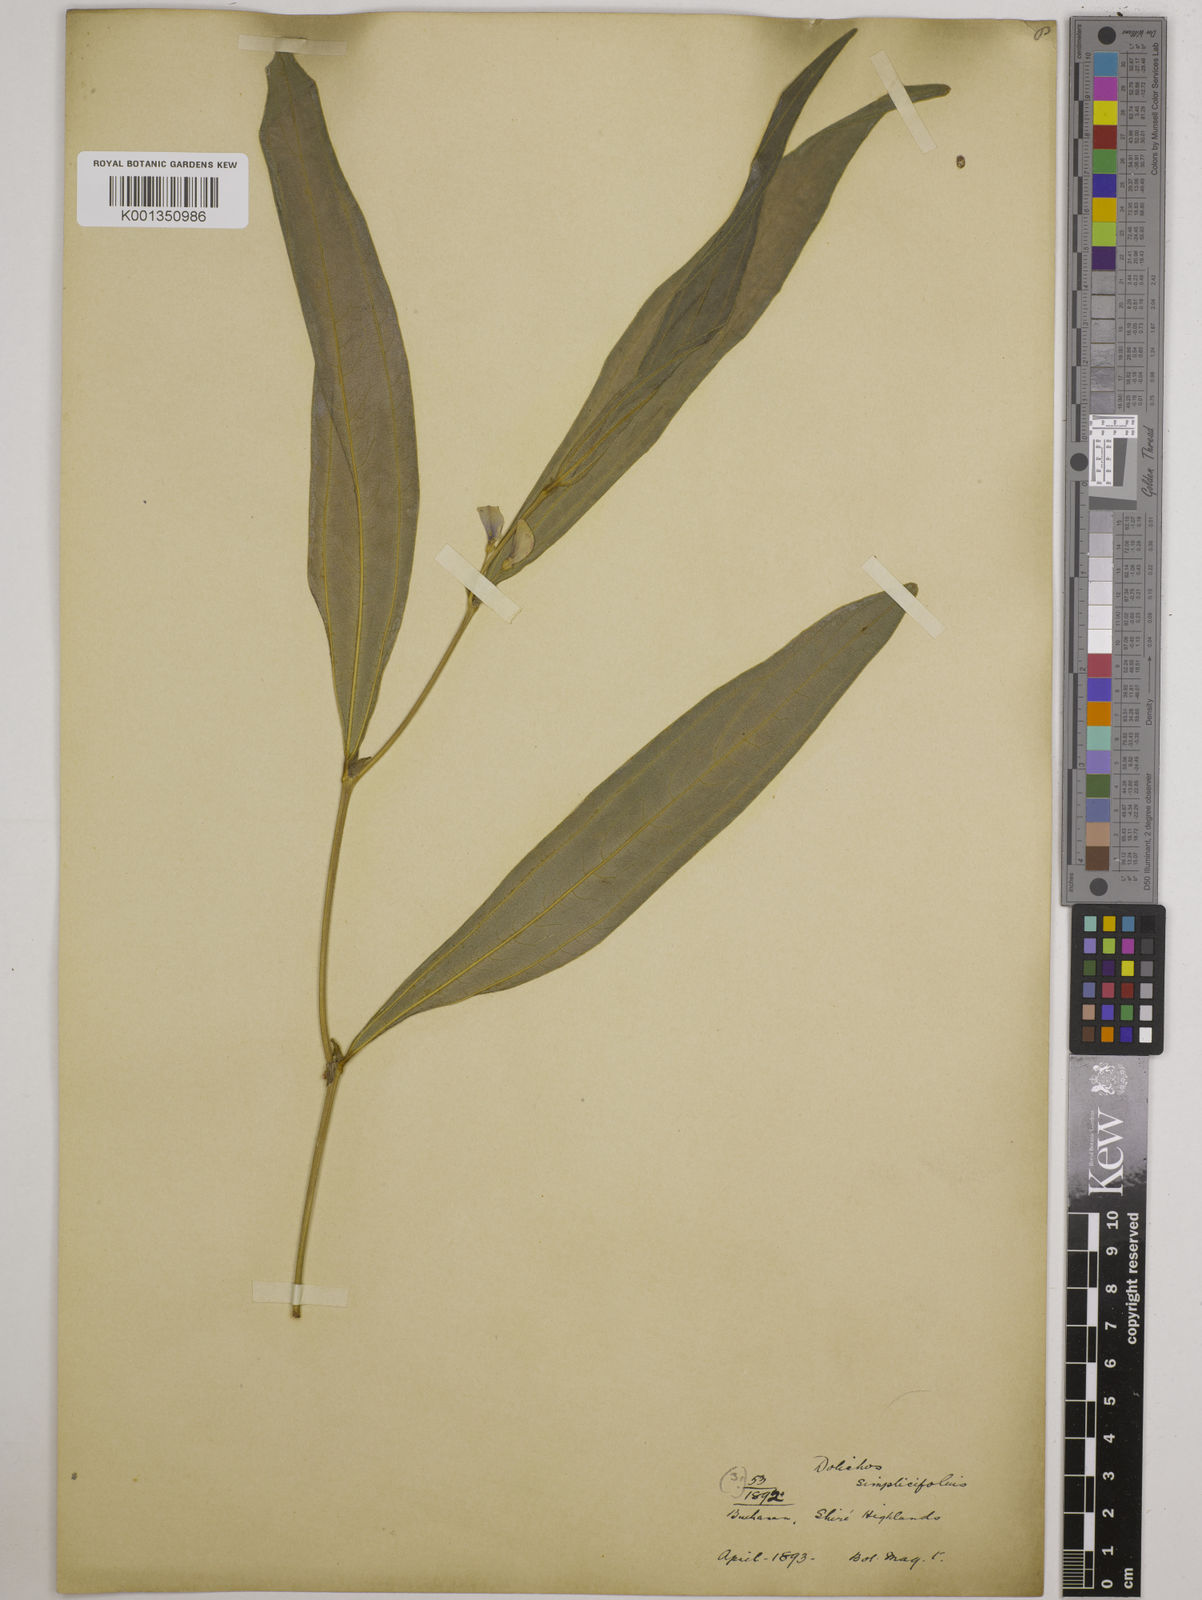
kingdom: Plantae
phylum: Tracheophyta
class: Magnoliopsida
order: Fabales
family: Fabaceae
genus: Dolichos
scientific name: Dolichos simplicifolius
